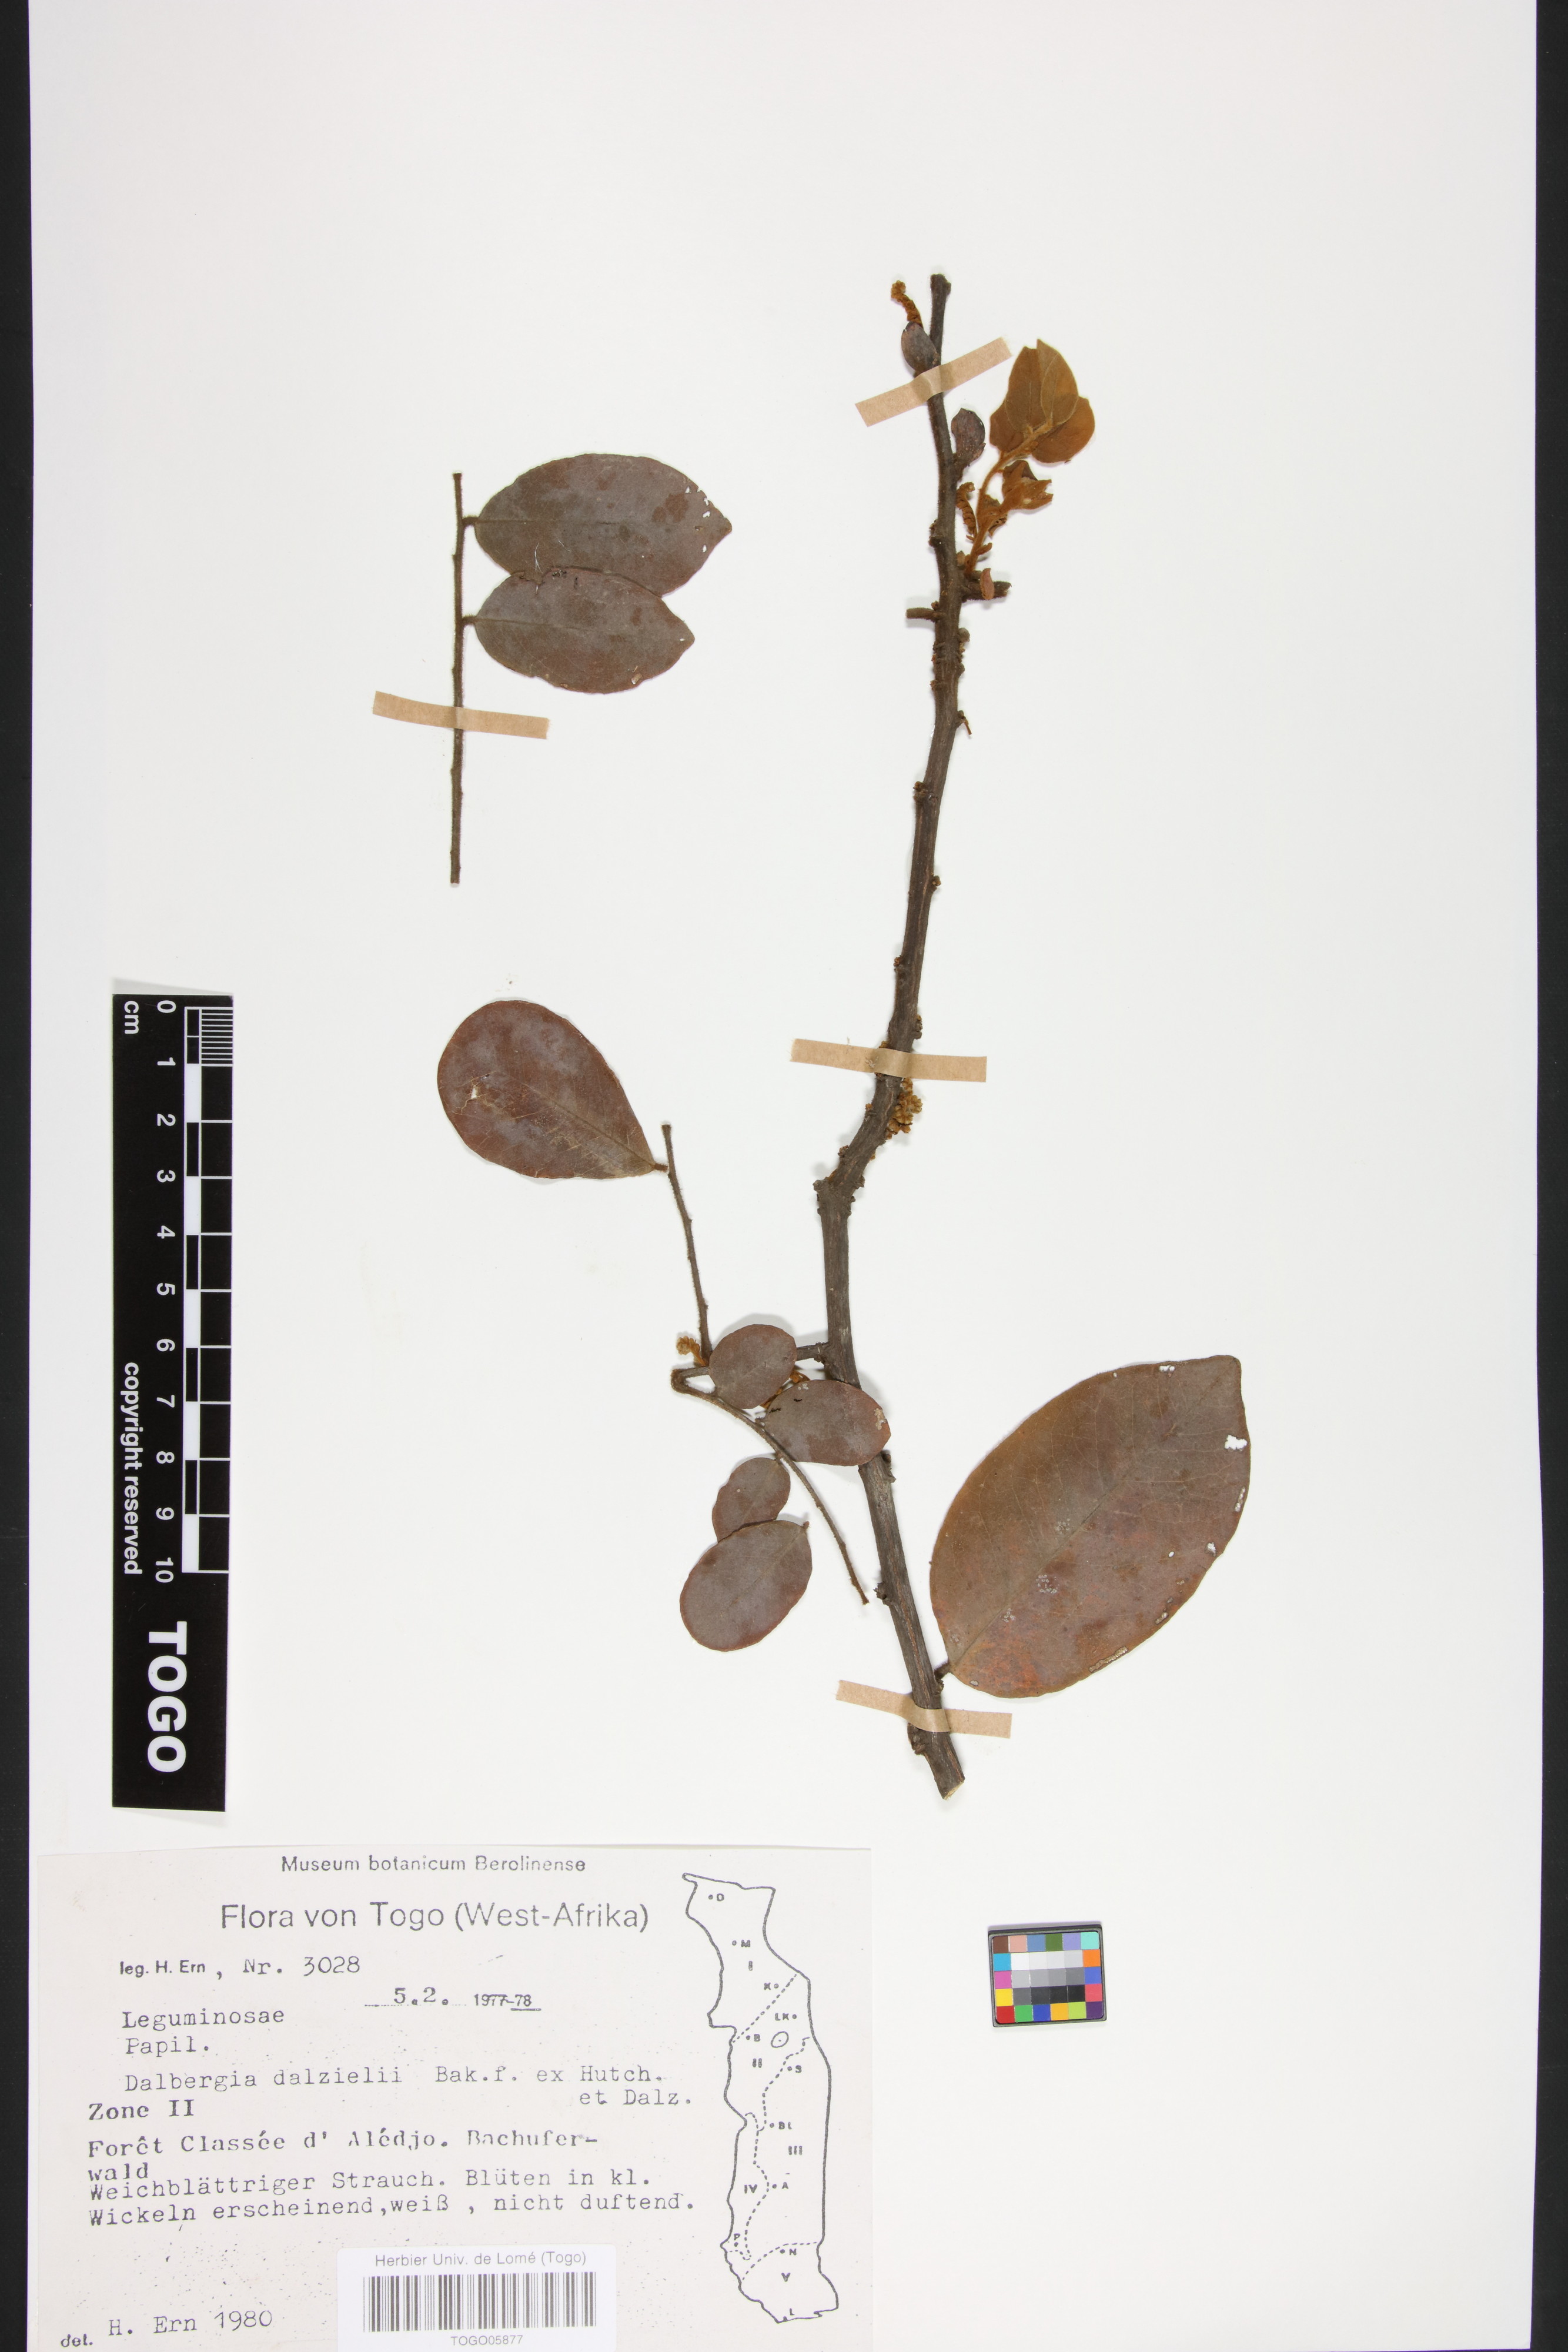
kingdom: Plantae
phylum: Tracheophyta
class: Magnoliopsida
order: Fabales
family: Fabaceae
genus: Dalbergia
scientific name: Dalbergia dalzielii ex
